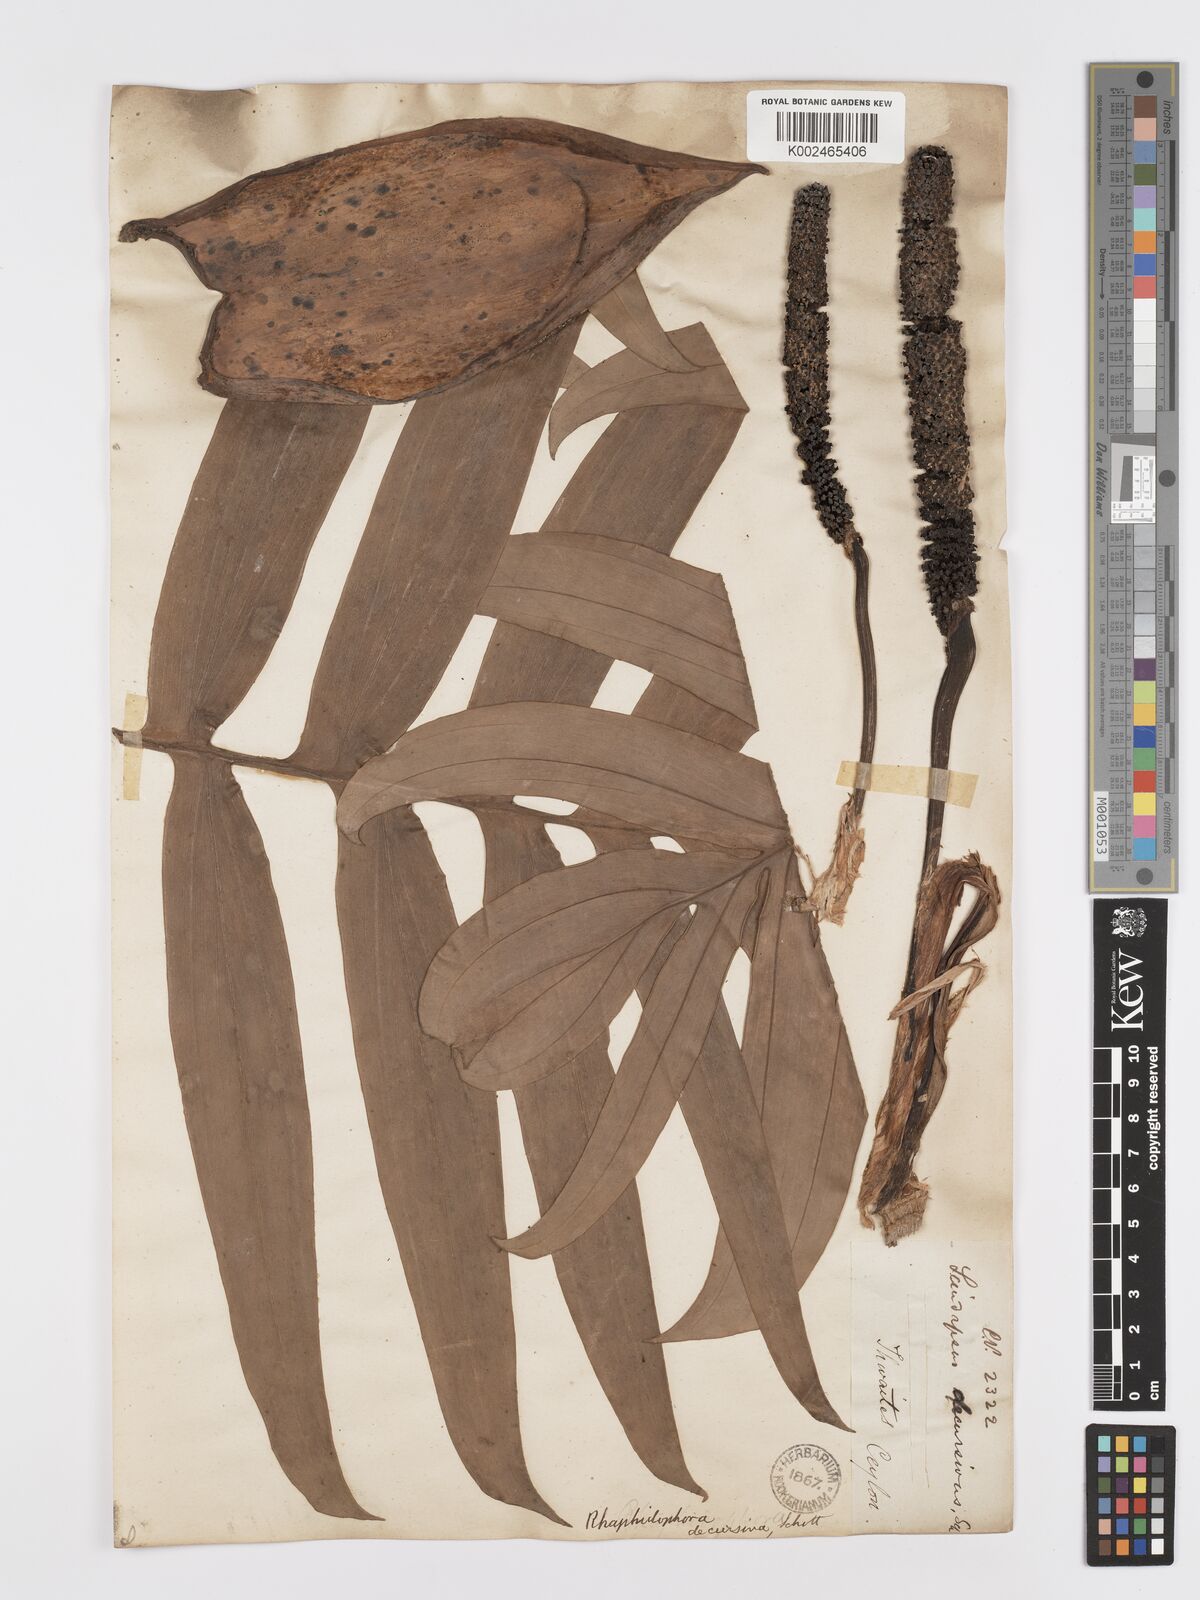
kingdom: Plantae
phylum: Tracheophyta
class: Liliopsida
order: Alismatales
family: Araceae
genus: Rhaphidophora
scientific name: Rhaphidophora decursiva
